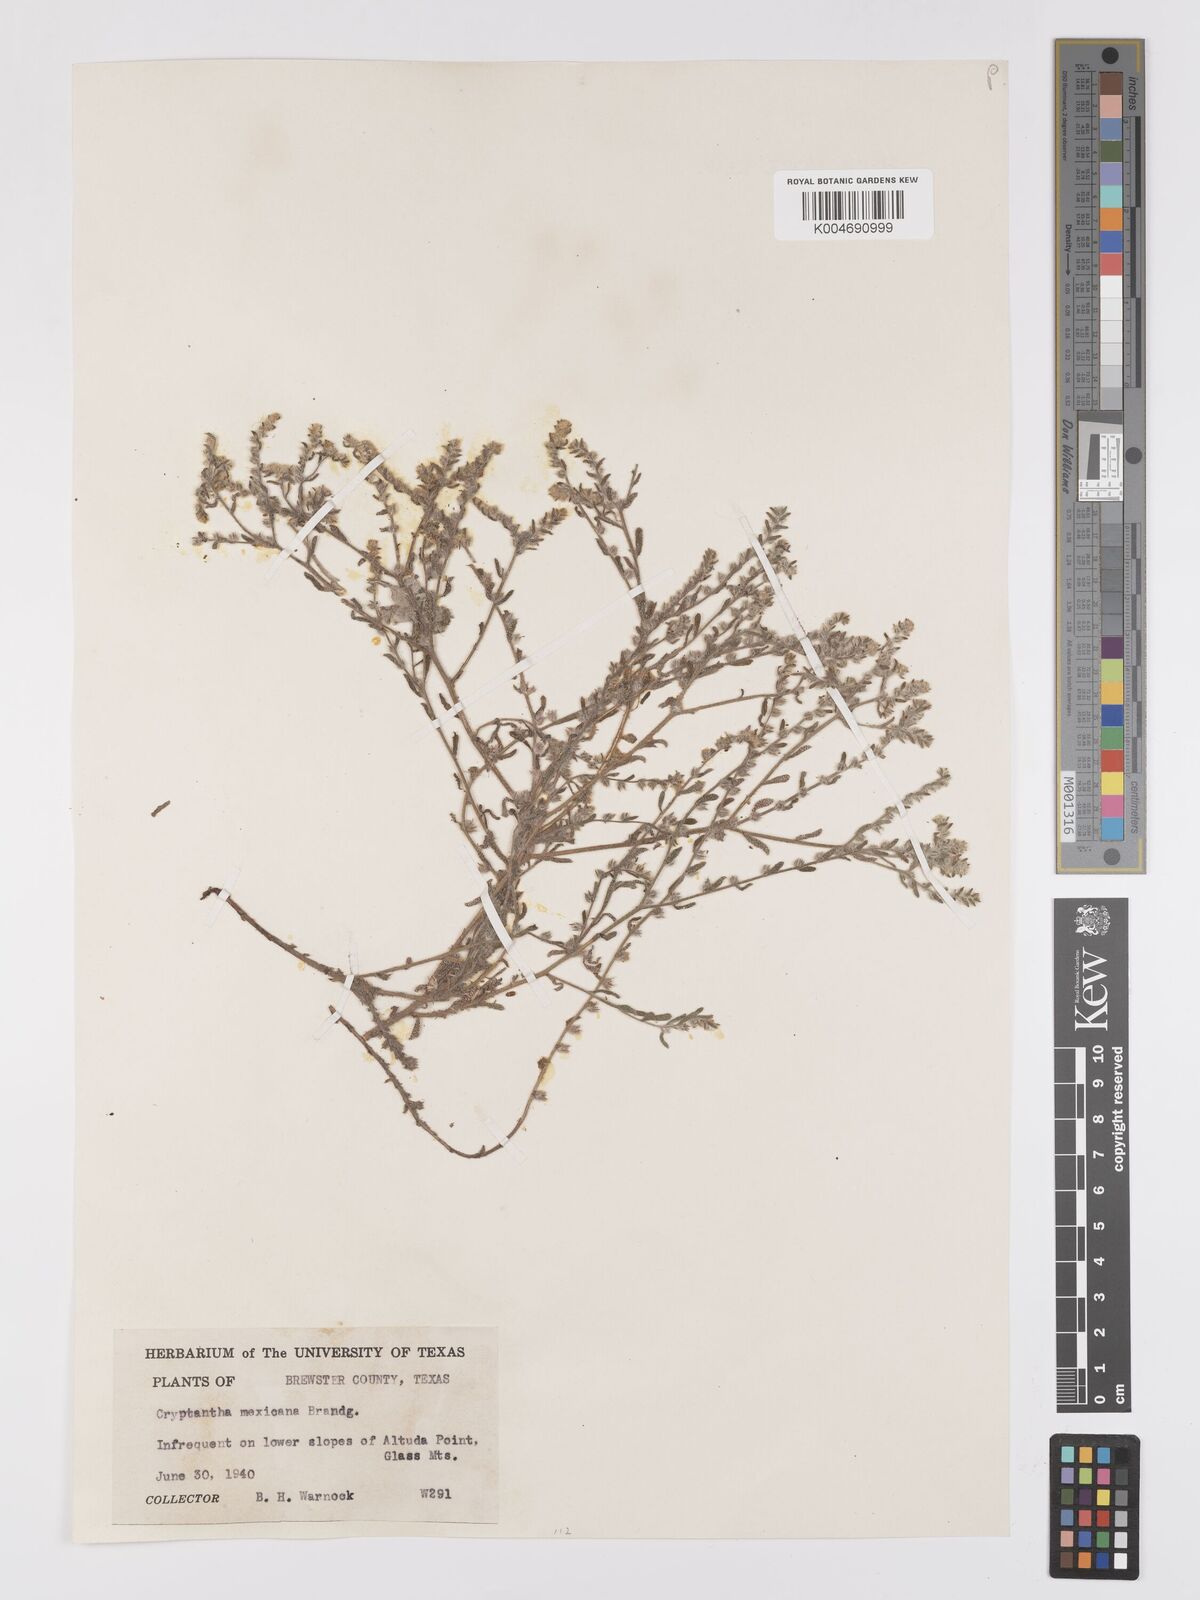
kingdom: Plantae
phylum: Tracheophyta
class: Magnoliopsida
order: Boraginales
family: Boraginaceae
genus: Johnstonella
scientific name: Johnstonella albida
